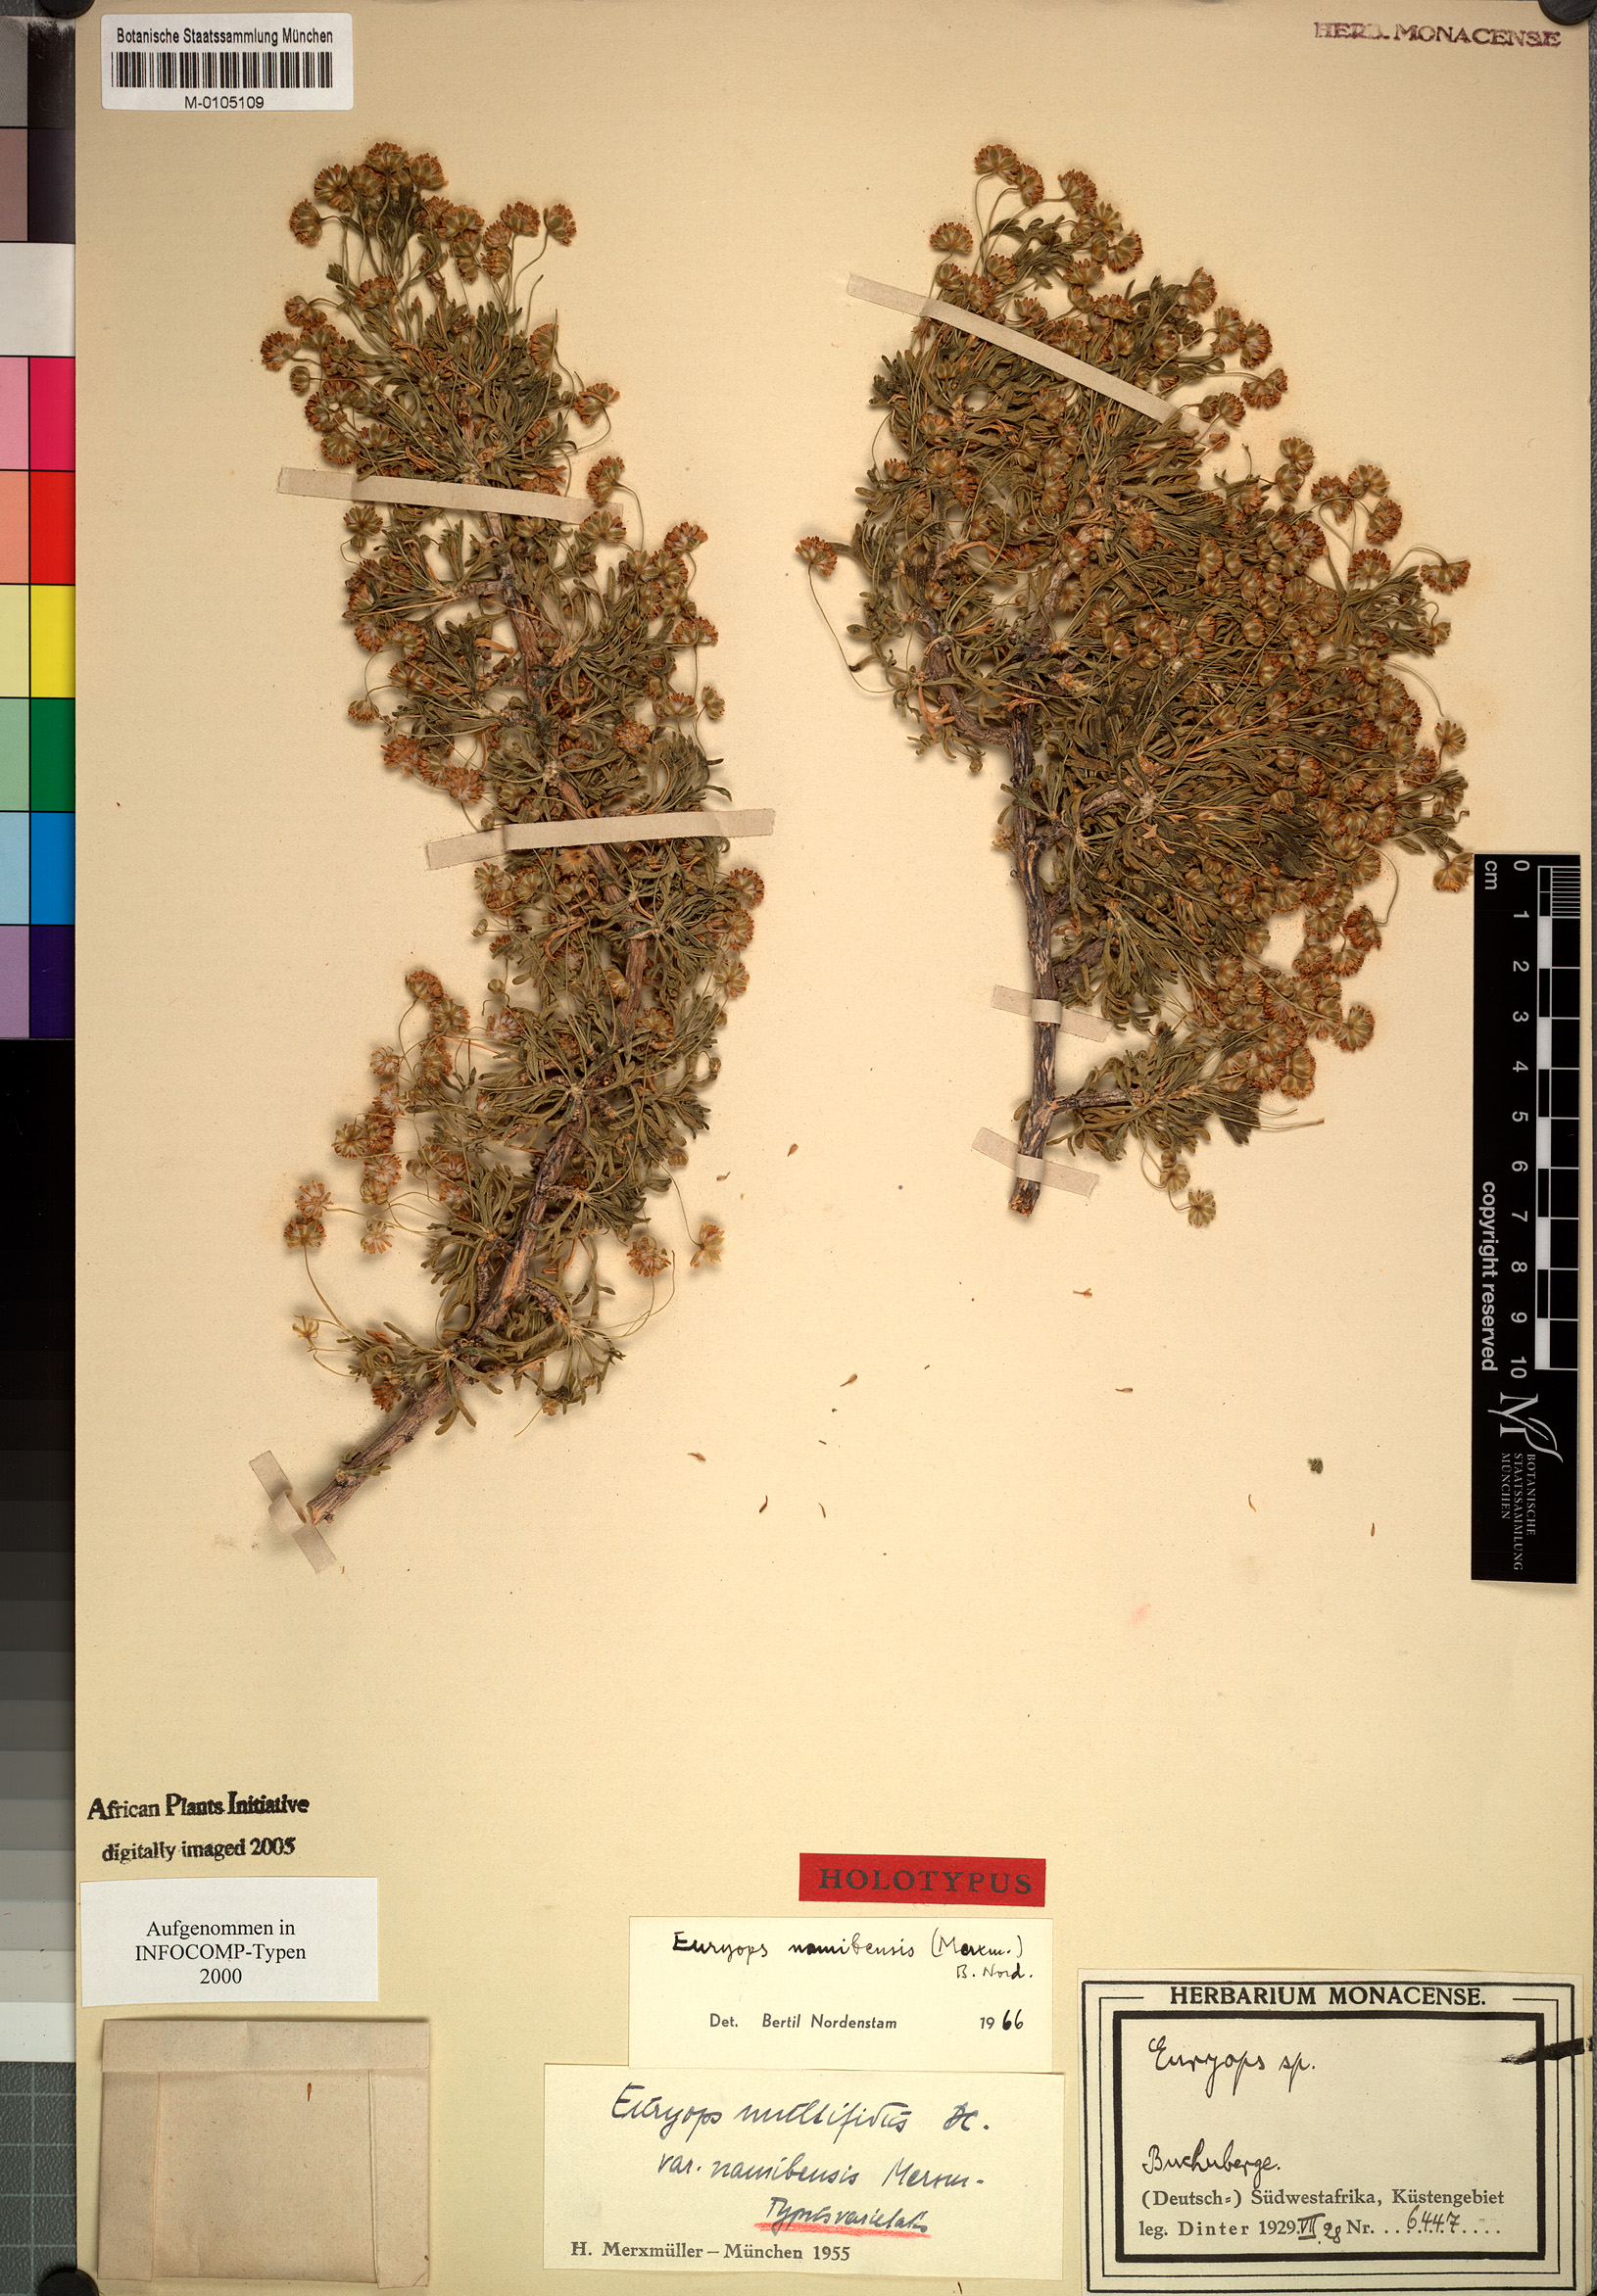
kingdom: Plantae
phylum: Tracheophyta
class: Magnoliopsida
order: Asterales
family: Asteraceae
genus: Euryops
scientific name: Euryops namibensis
